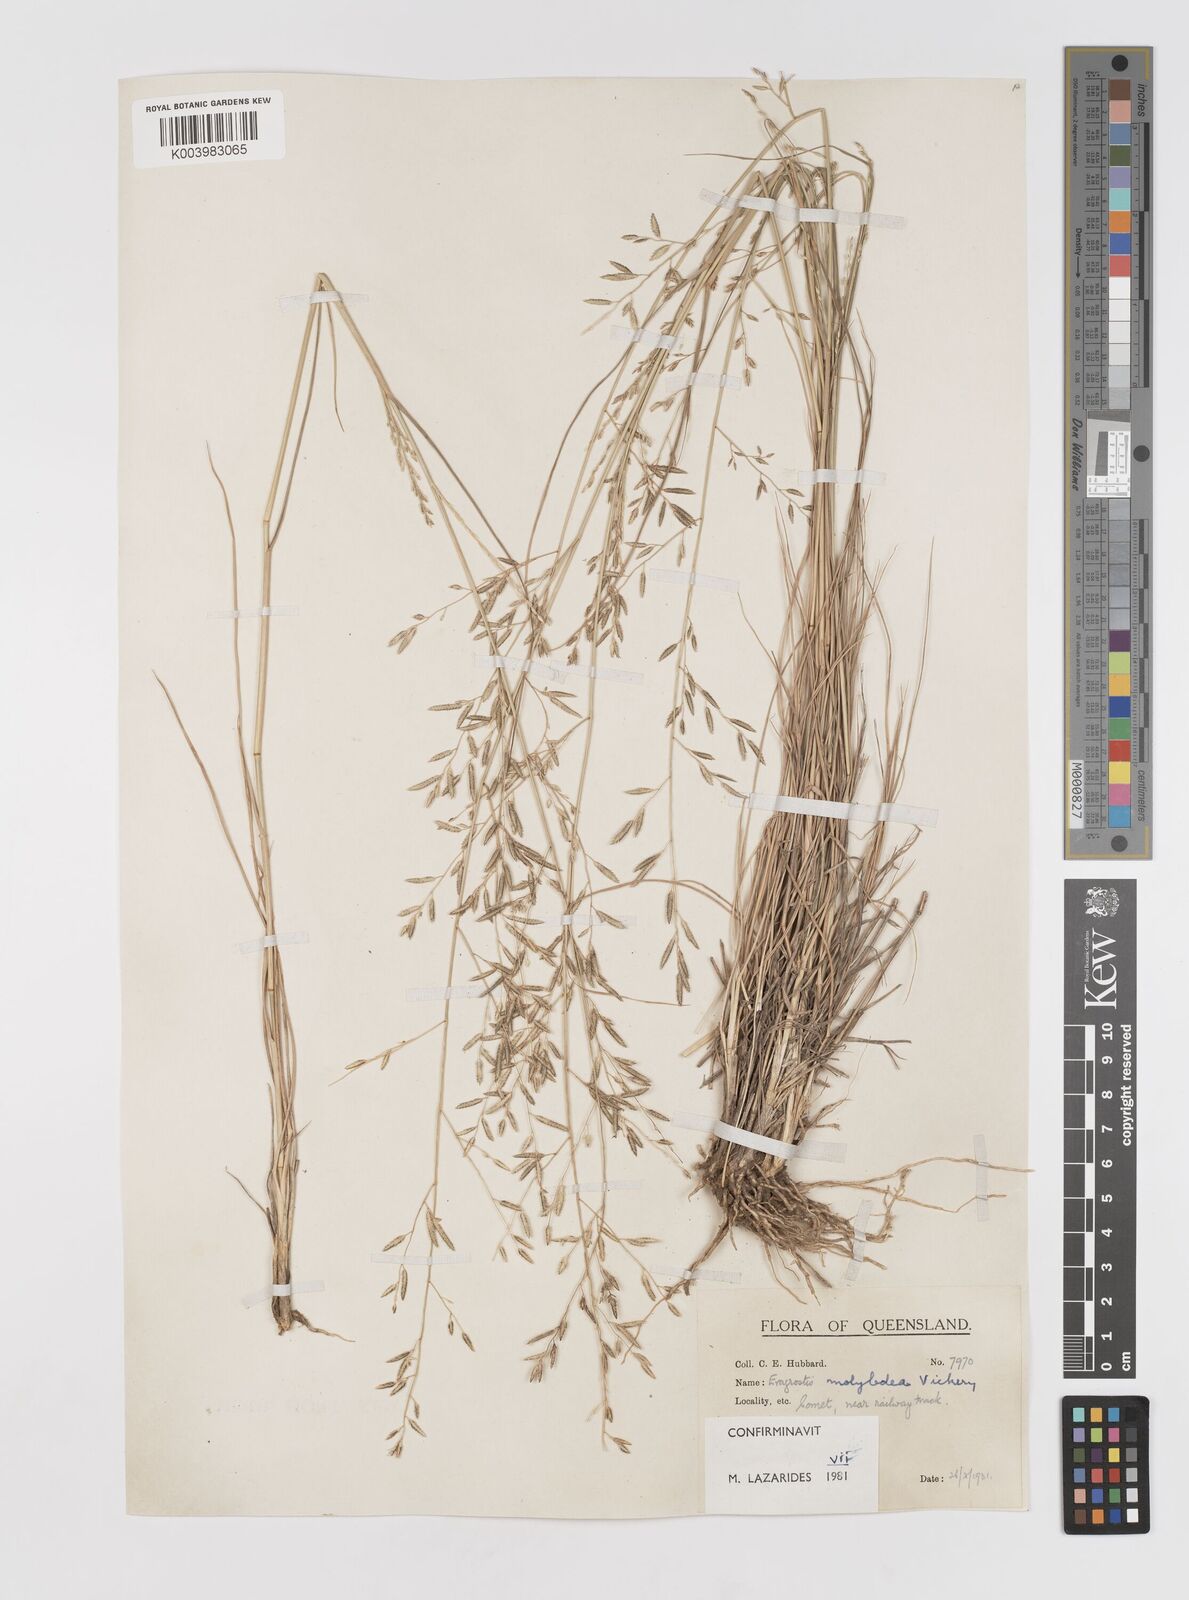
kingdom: Plantae
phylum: Tracheophyta
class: Liliopsida
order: Poales
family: Poaceae
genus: Eragrostis
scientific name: Eragrostis leptostachya
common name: Australian lovegrass
